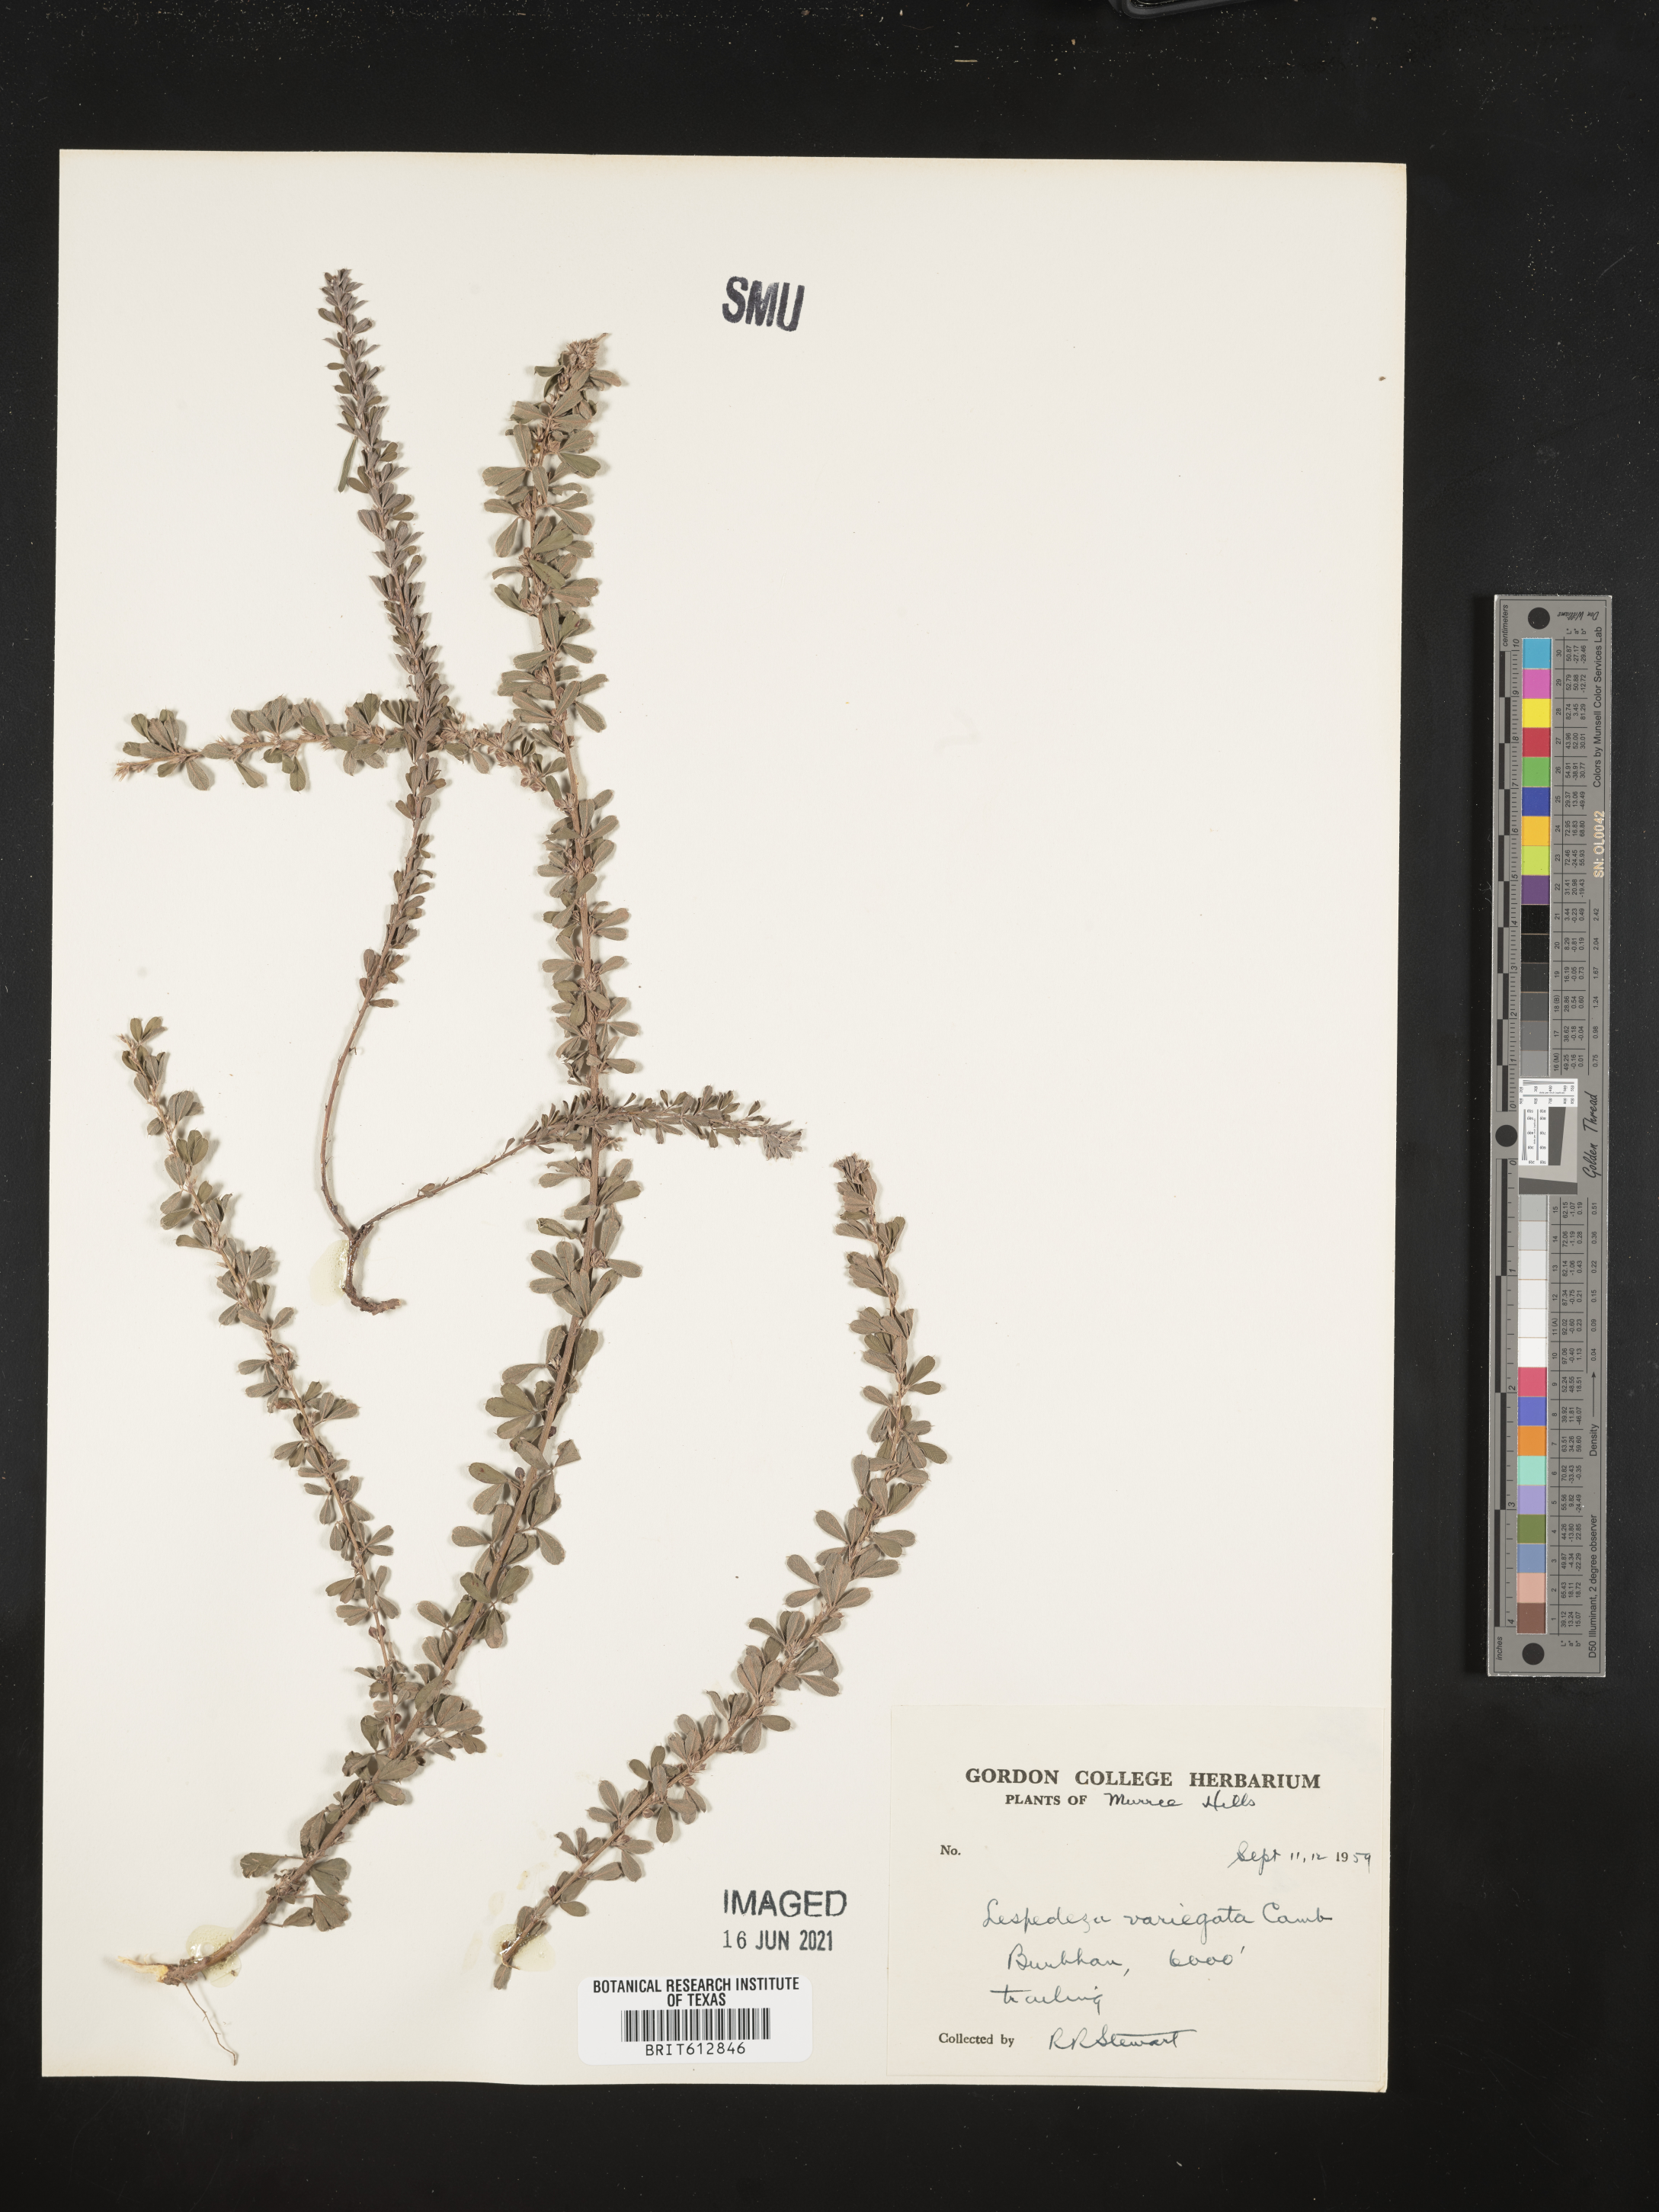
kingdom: Plantae
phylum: Tracheophyta
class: Magnoliopsida
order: Fabales
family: Fabaceae
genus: Lespedeza
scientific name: Lespedeza juncea
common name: Siberian lespedeza
